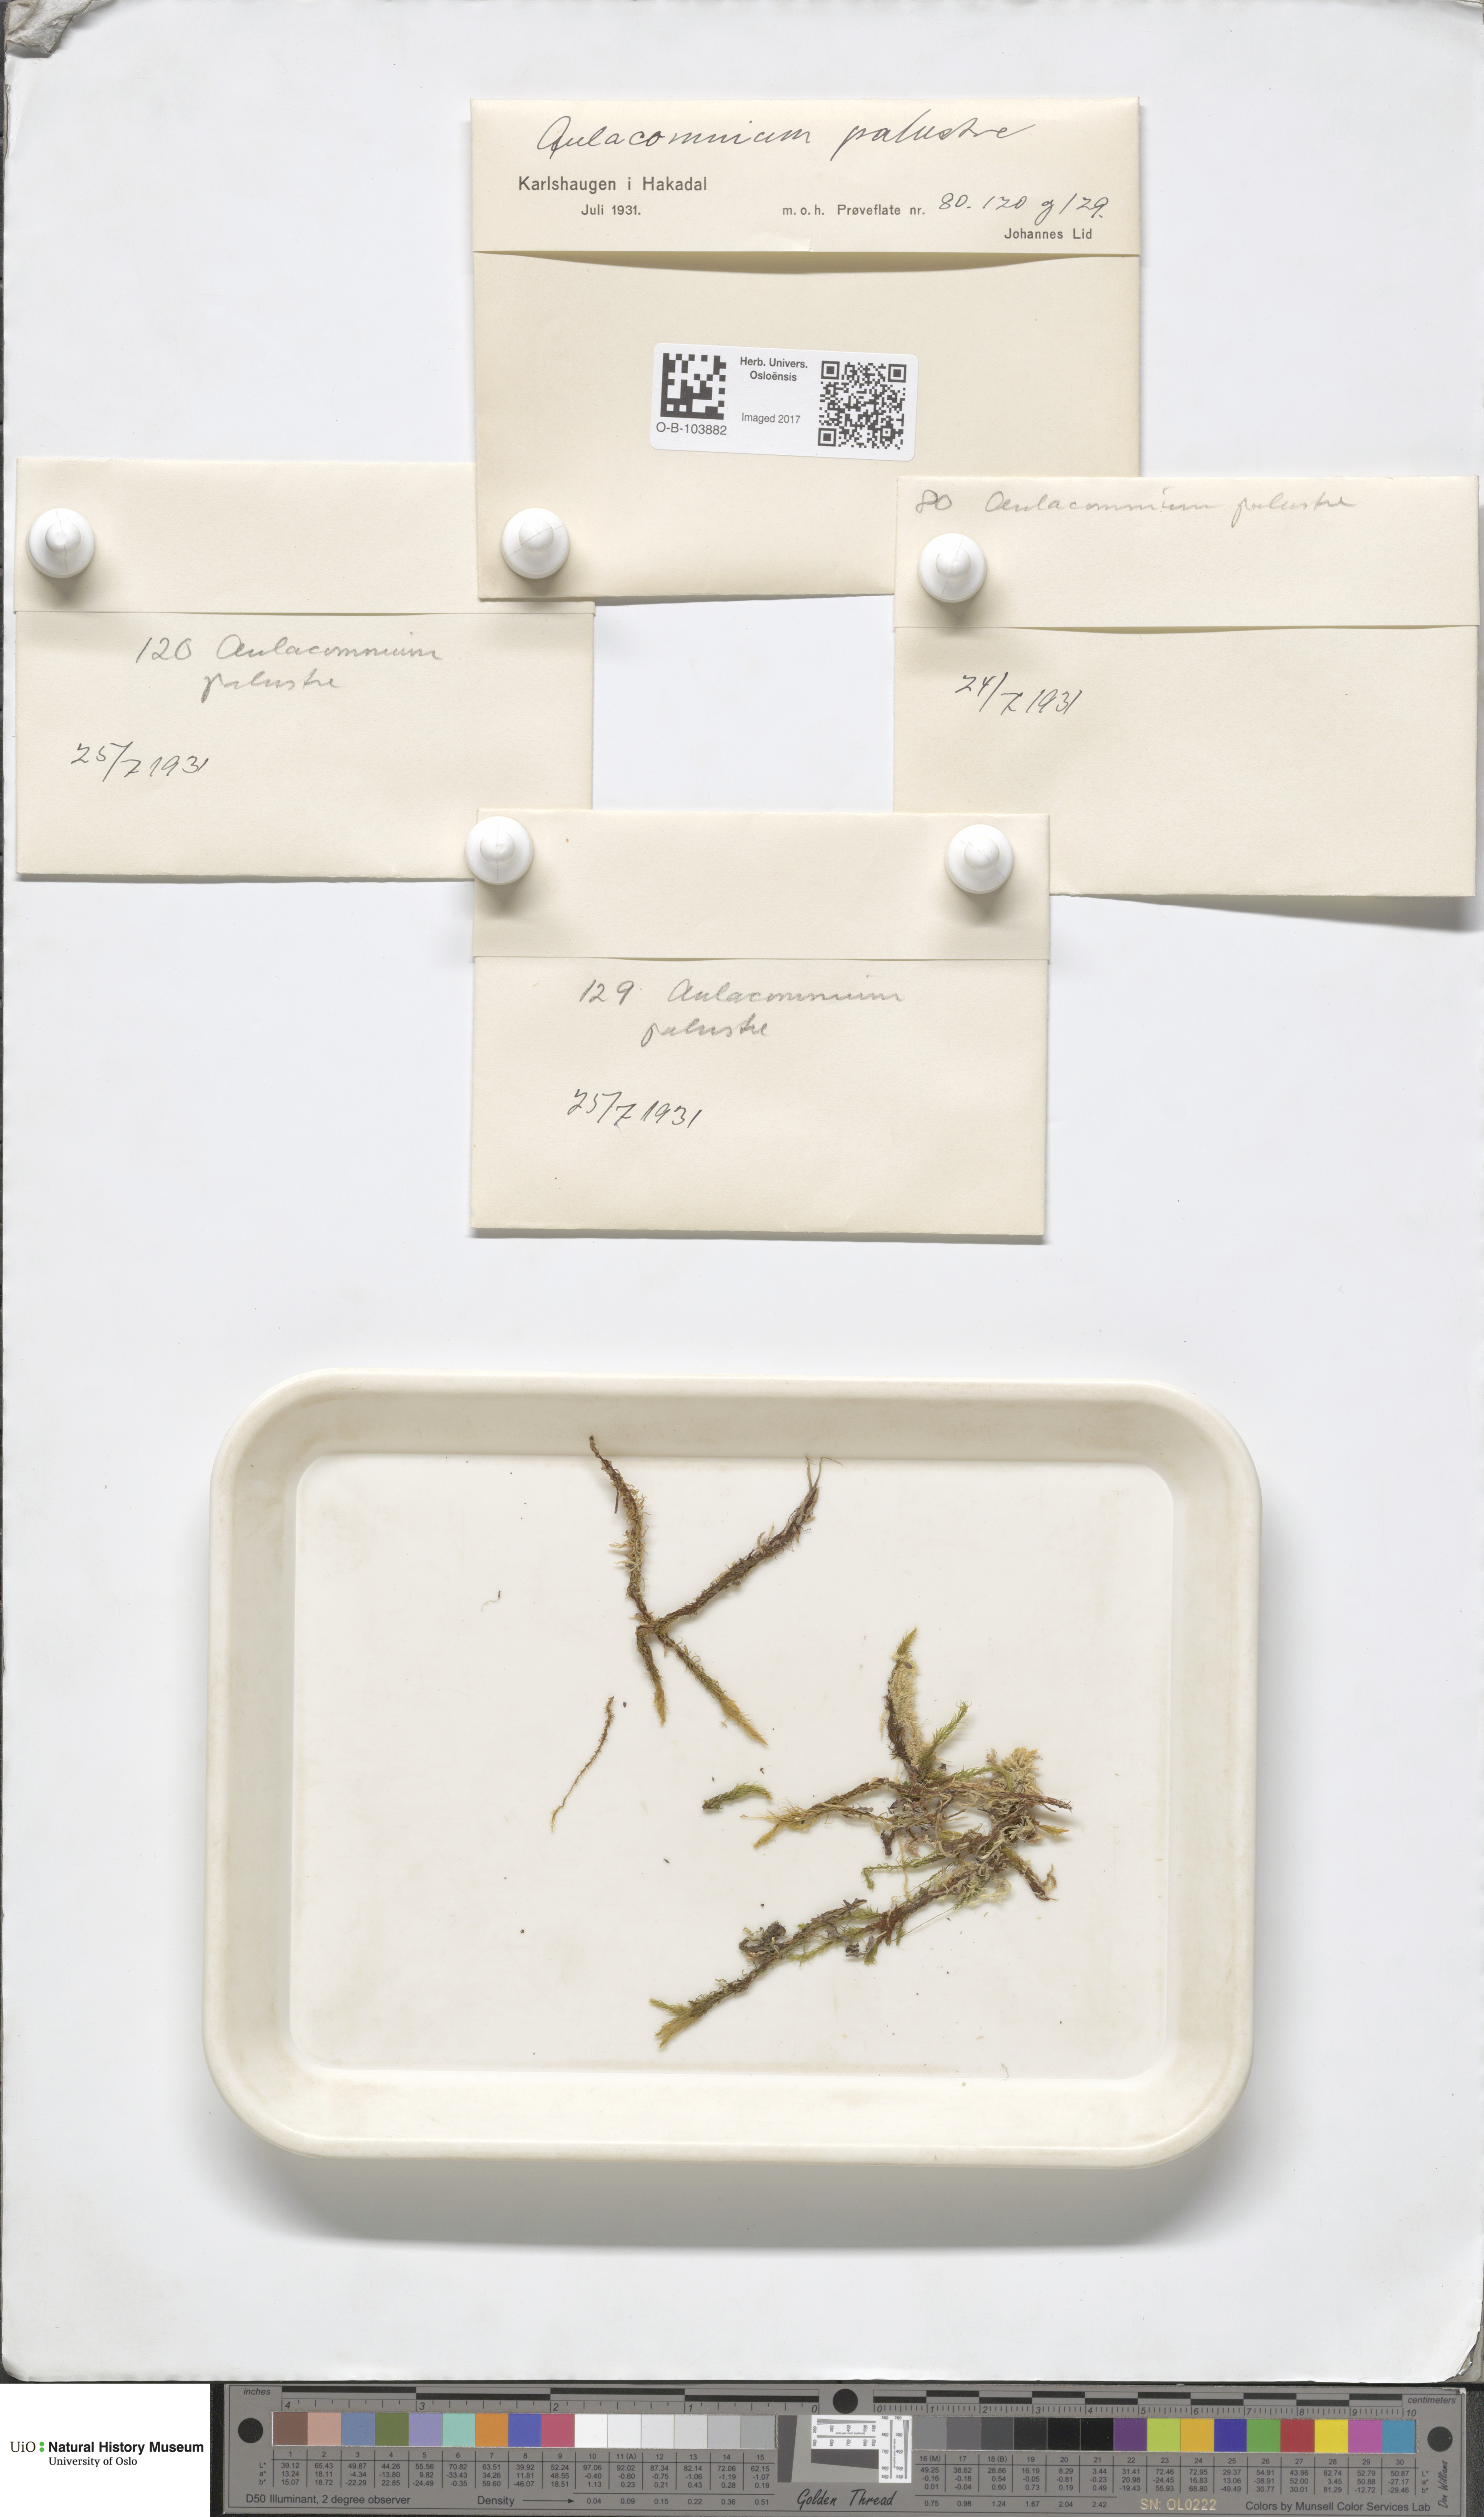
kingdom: Plantae
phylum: Bryophyta
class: Bryopsida
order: Aulacomniales
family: Aulacomniaceae
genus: Aulacomnium
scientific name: Aulacomnium palustre
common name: Bog groove-moss
